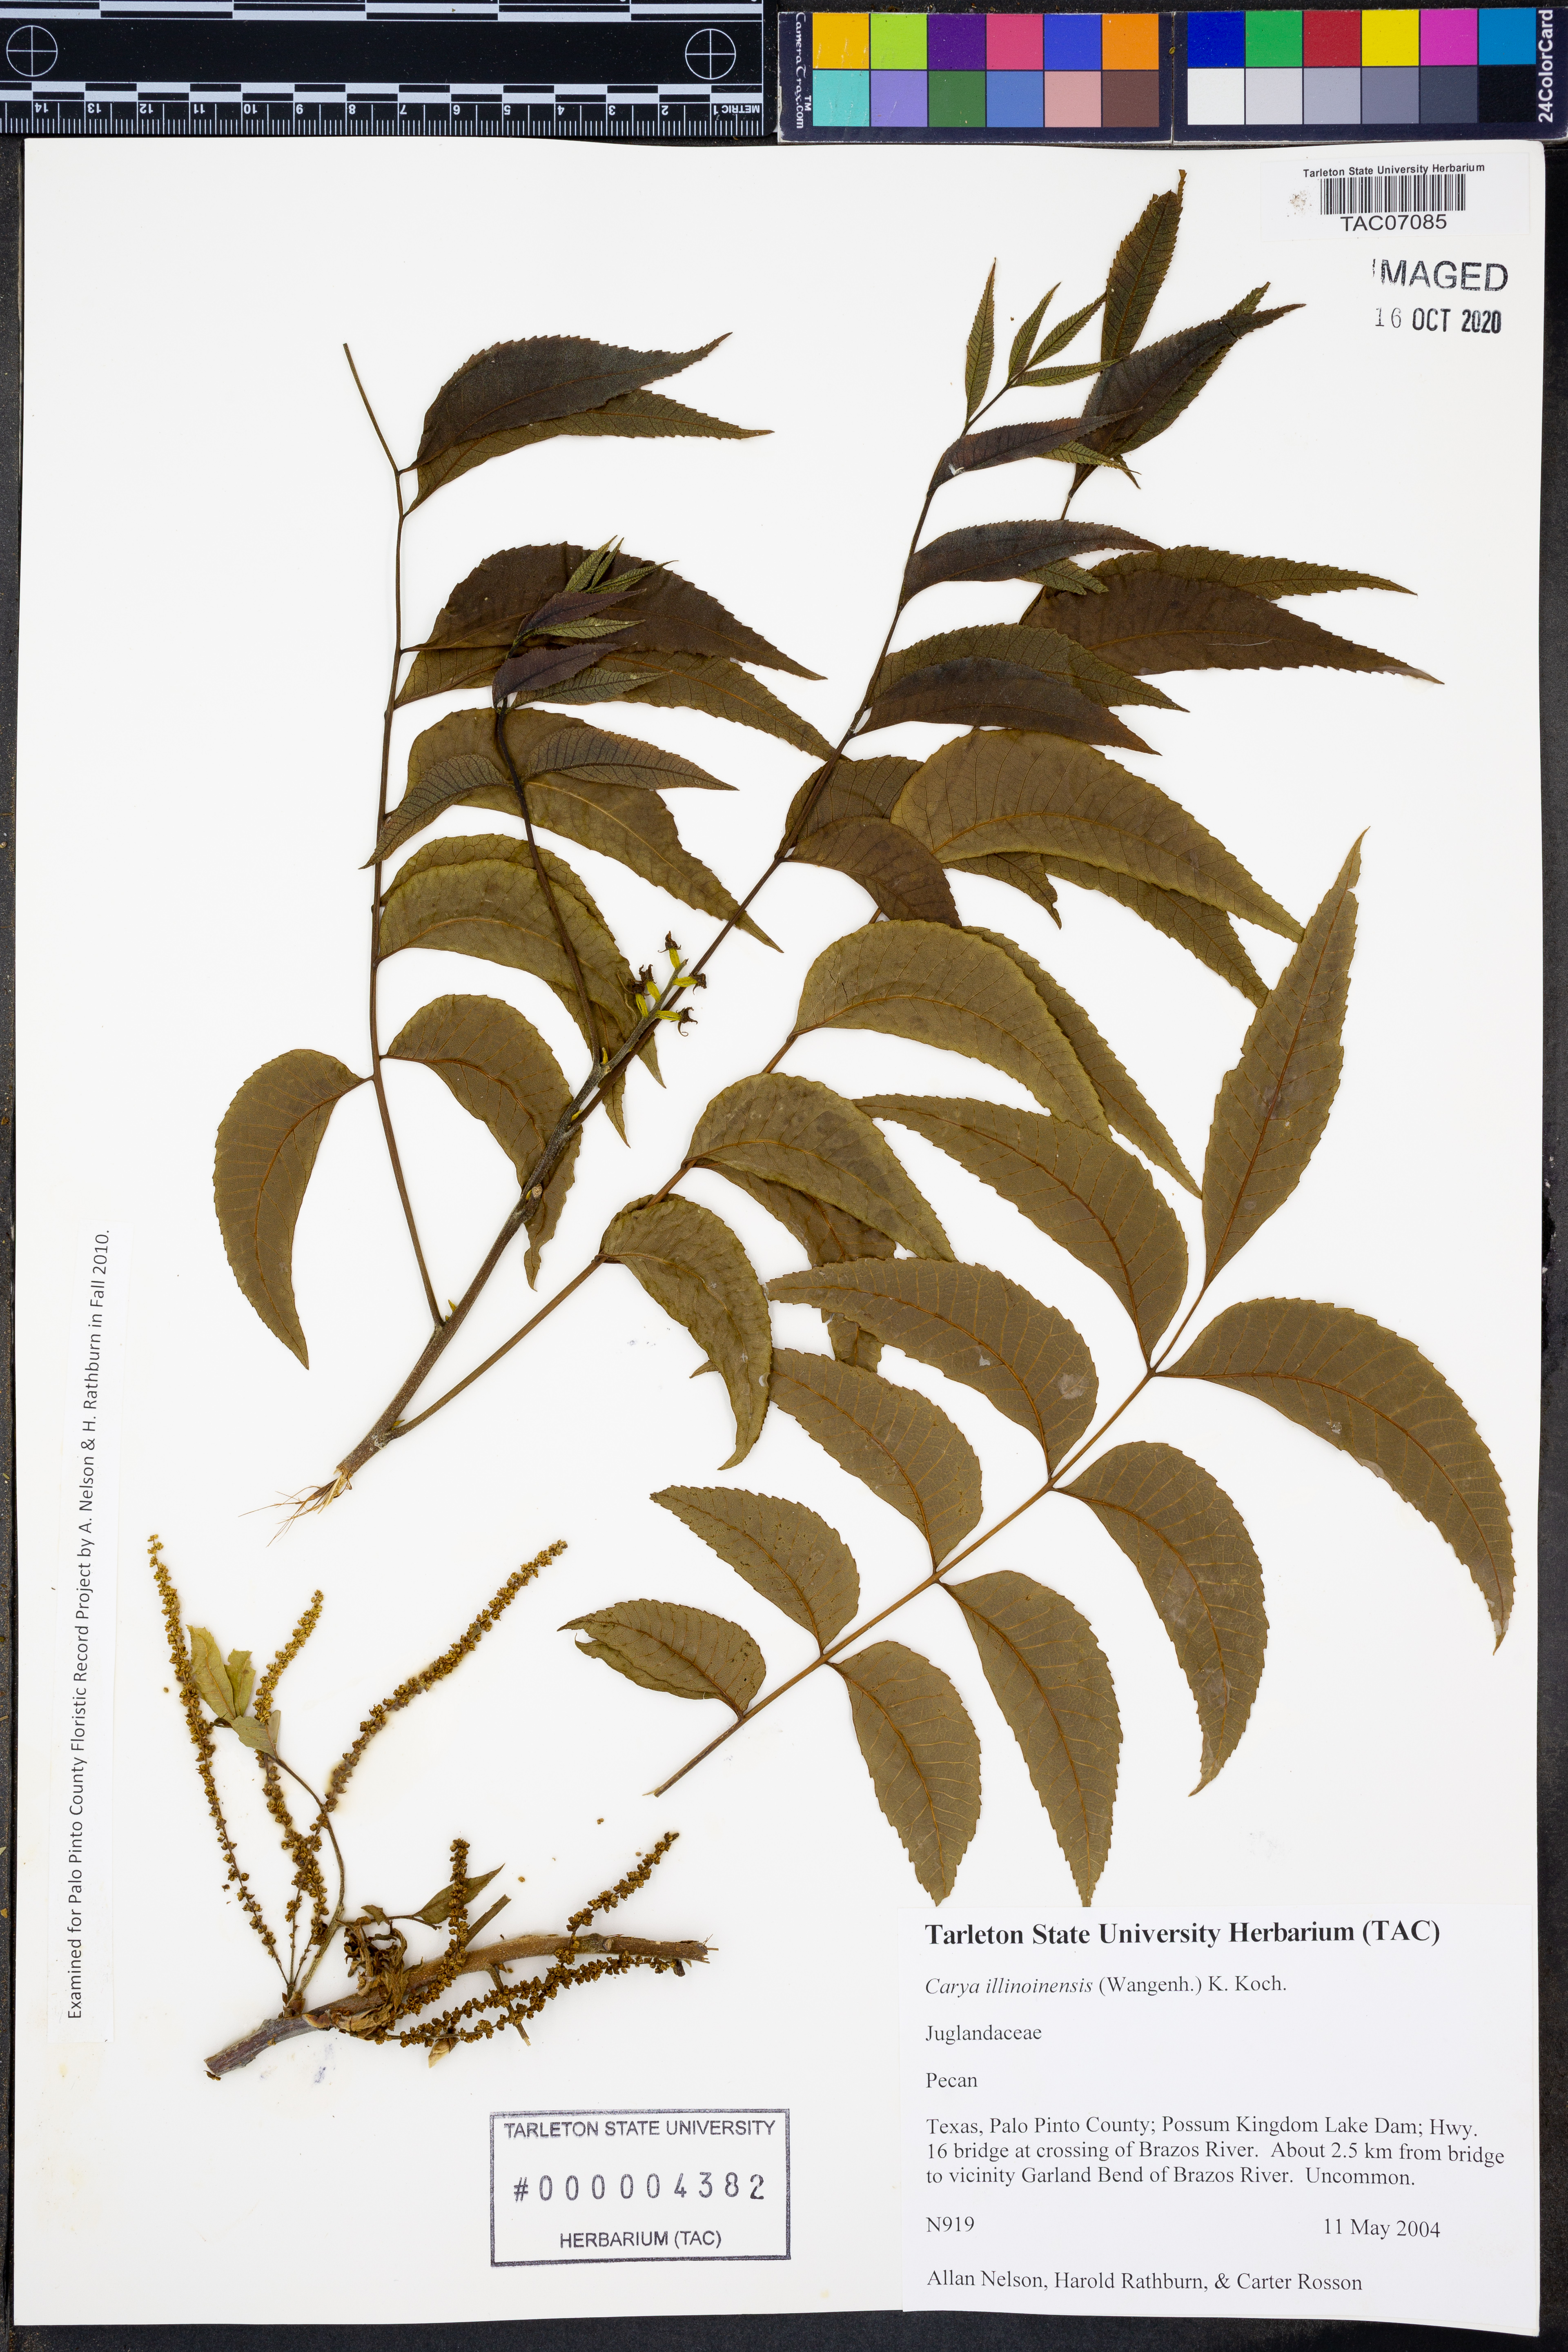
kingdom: Plantae
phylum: Tracheophyta
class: Magnoliopsida
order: Fagales
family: Juglandaceae
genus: Carya
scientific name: Carya illinoinensis
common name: Pecan
